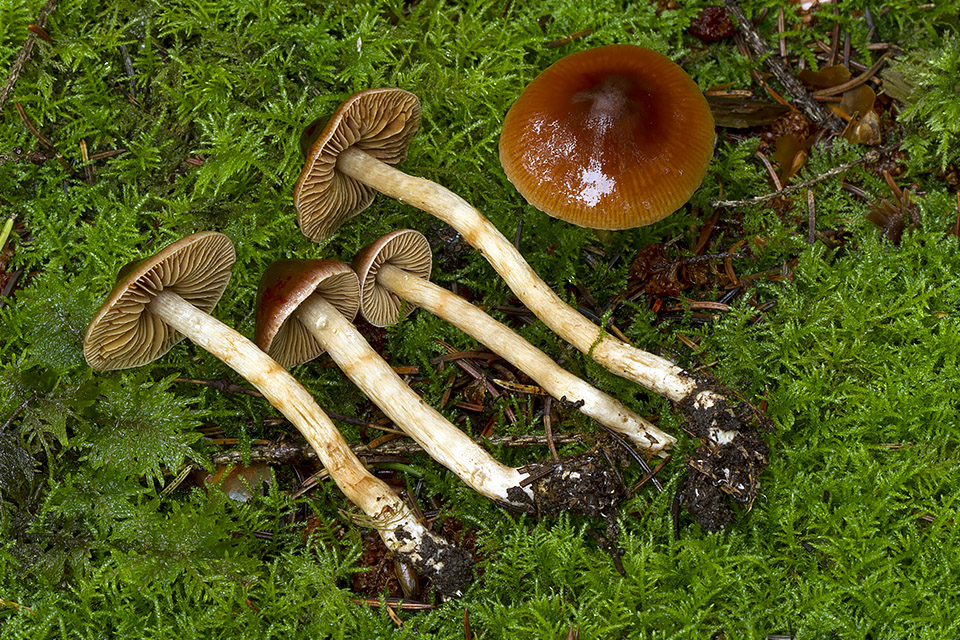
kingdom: Fungi
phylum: Basidiomycota
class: Agaricomycetes
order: Agaricales
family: Cortinariaceae
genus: Cortinarius
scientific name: Cortinarius
